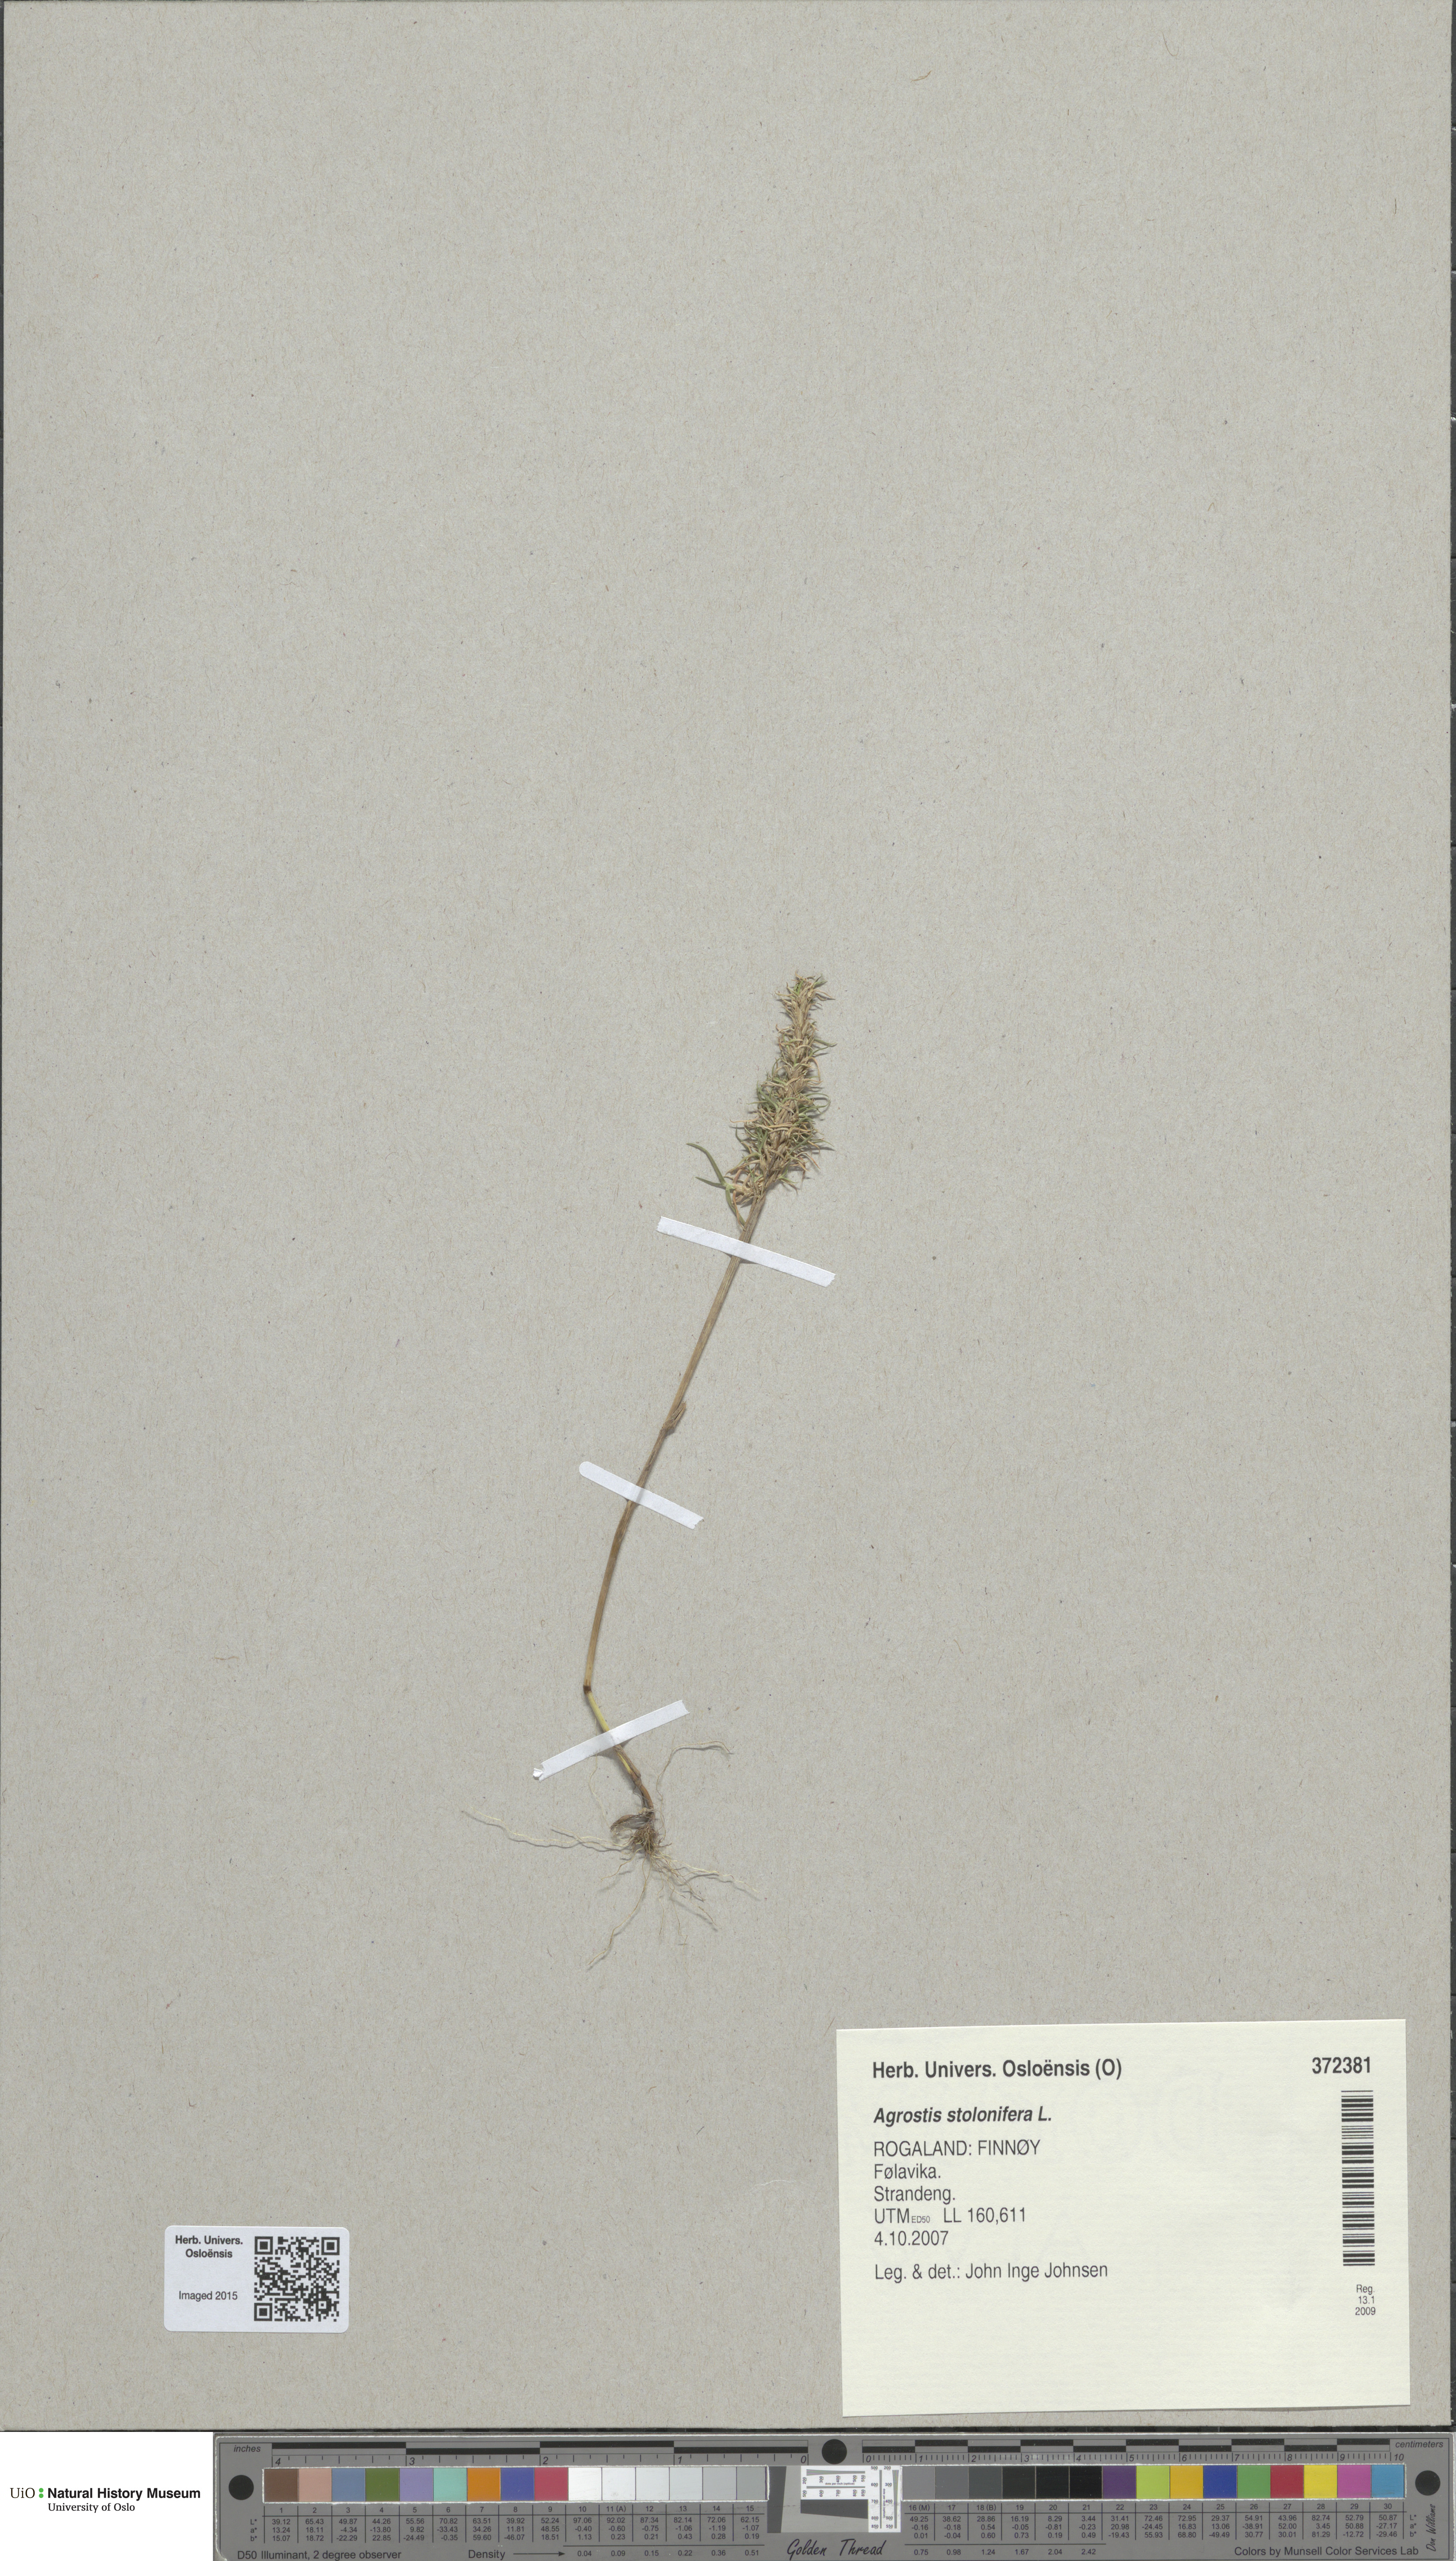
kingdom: Plantae
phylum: Tracheophyta
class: Liliopsida
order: Poales
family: Poaceae
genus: Agrostis
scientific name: Agrostis stolonifera
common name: Creeping bentgrass
